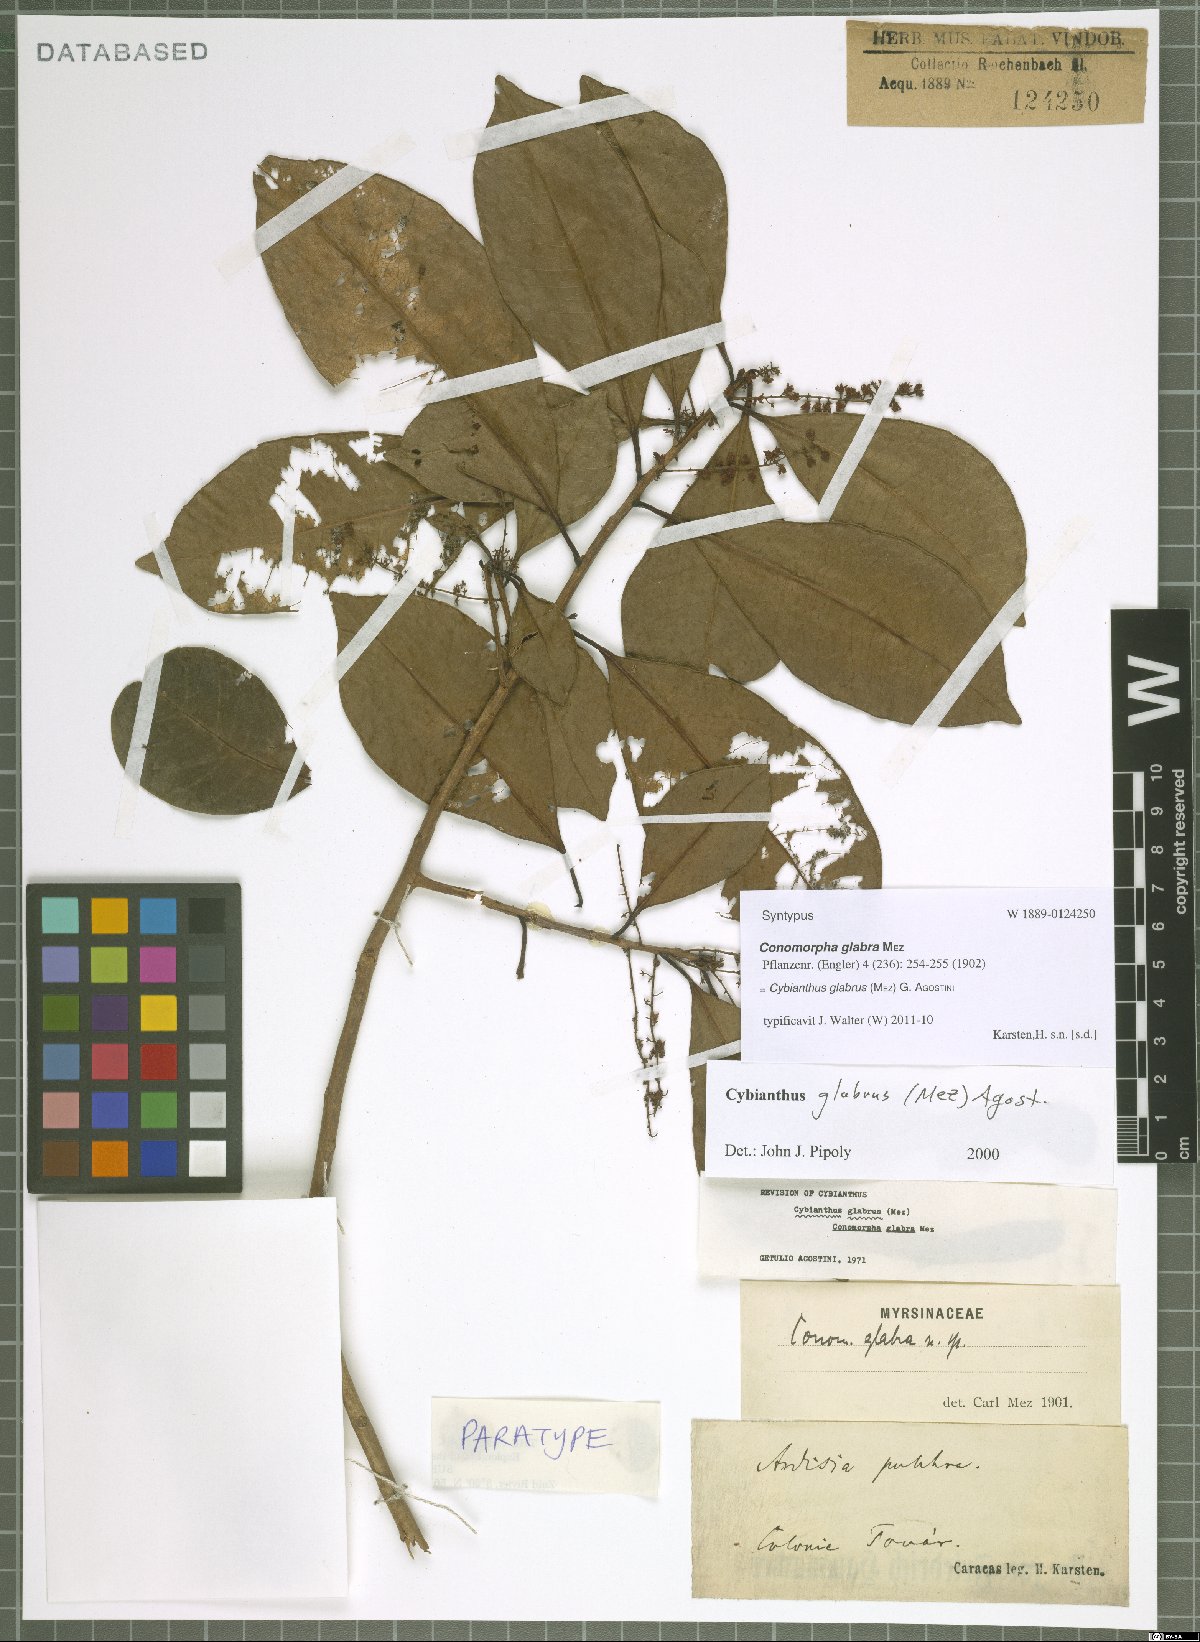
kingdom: Plantae
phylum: Tracheophyta
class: Magnoliopsida
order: Ericales
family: Primulaceae
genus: Cybianthus
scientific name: Cybianthus glabrus
